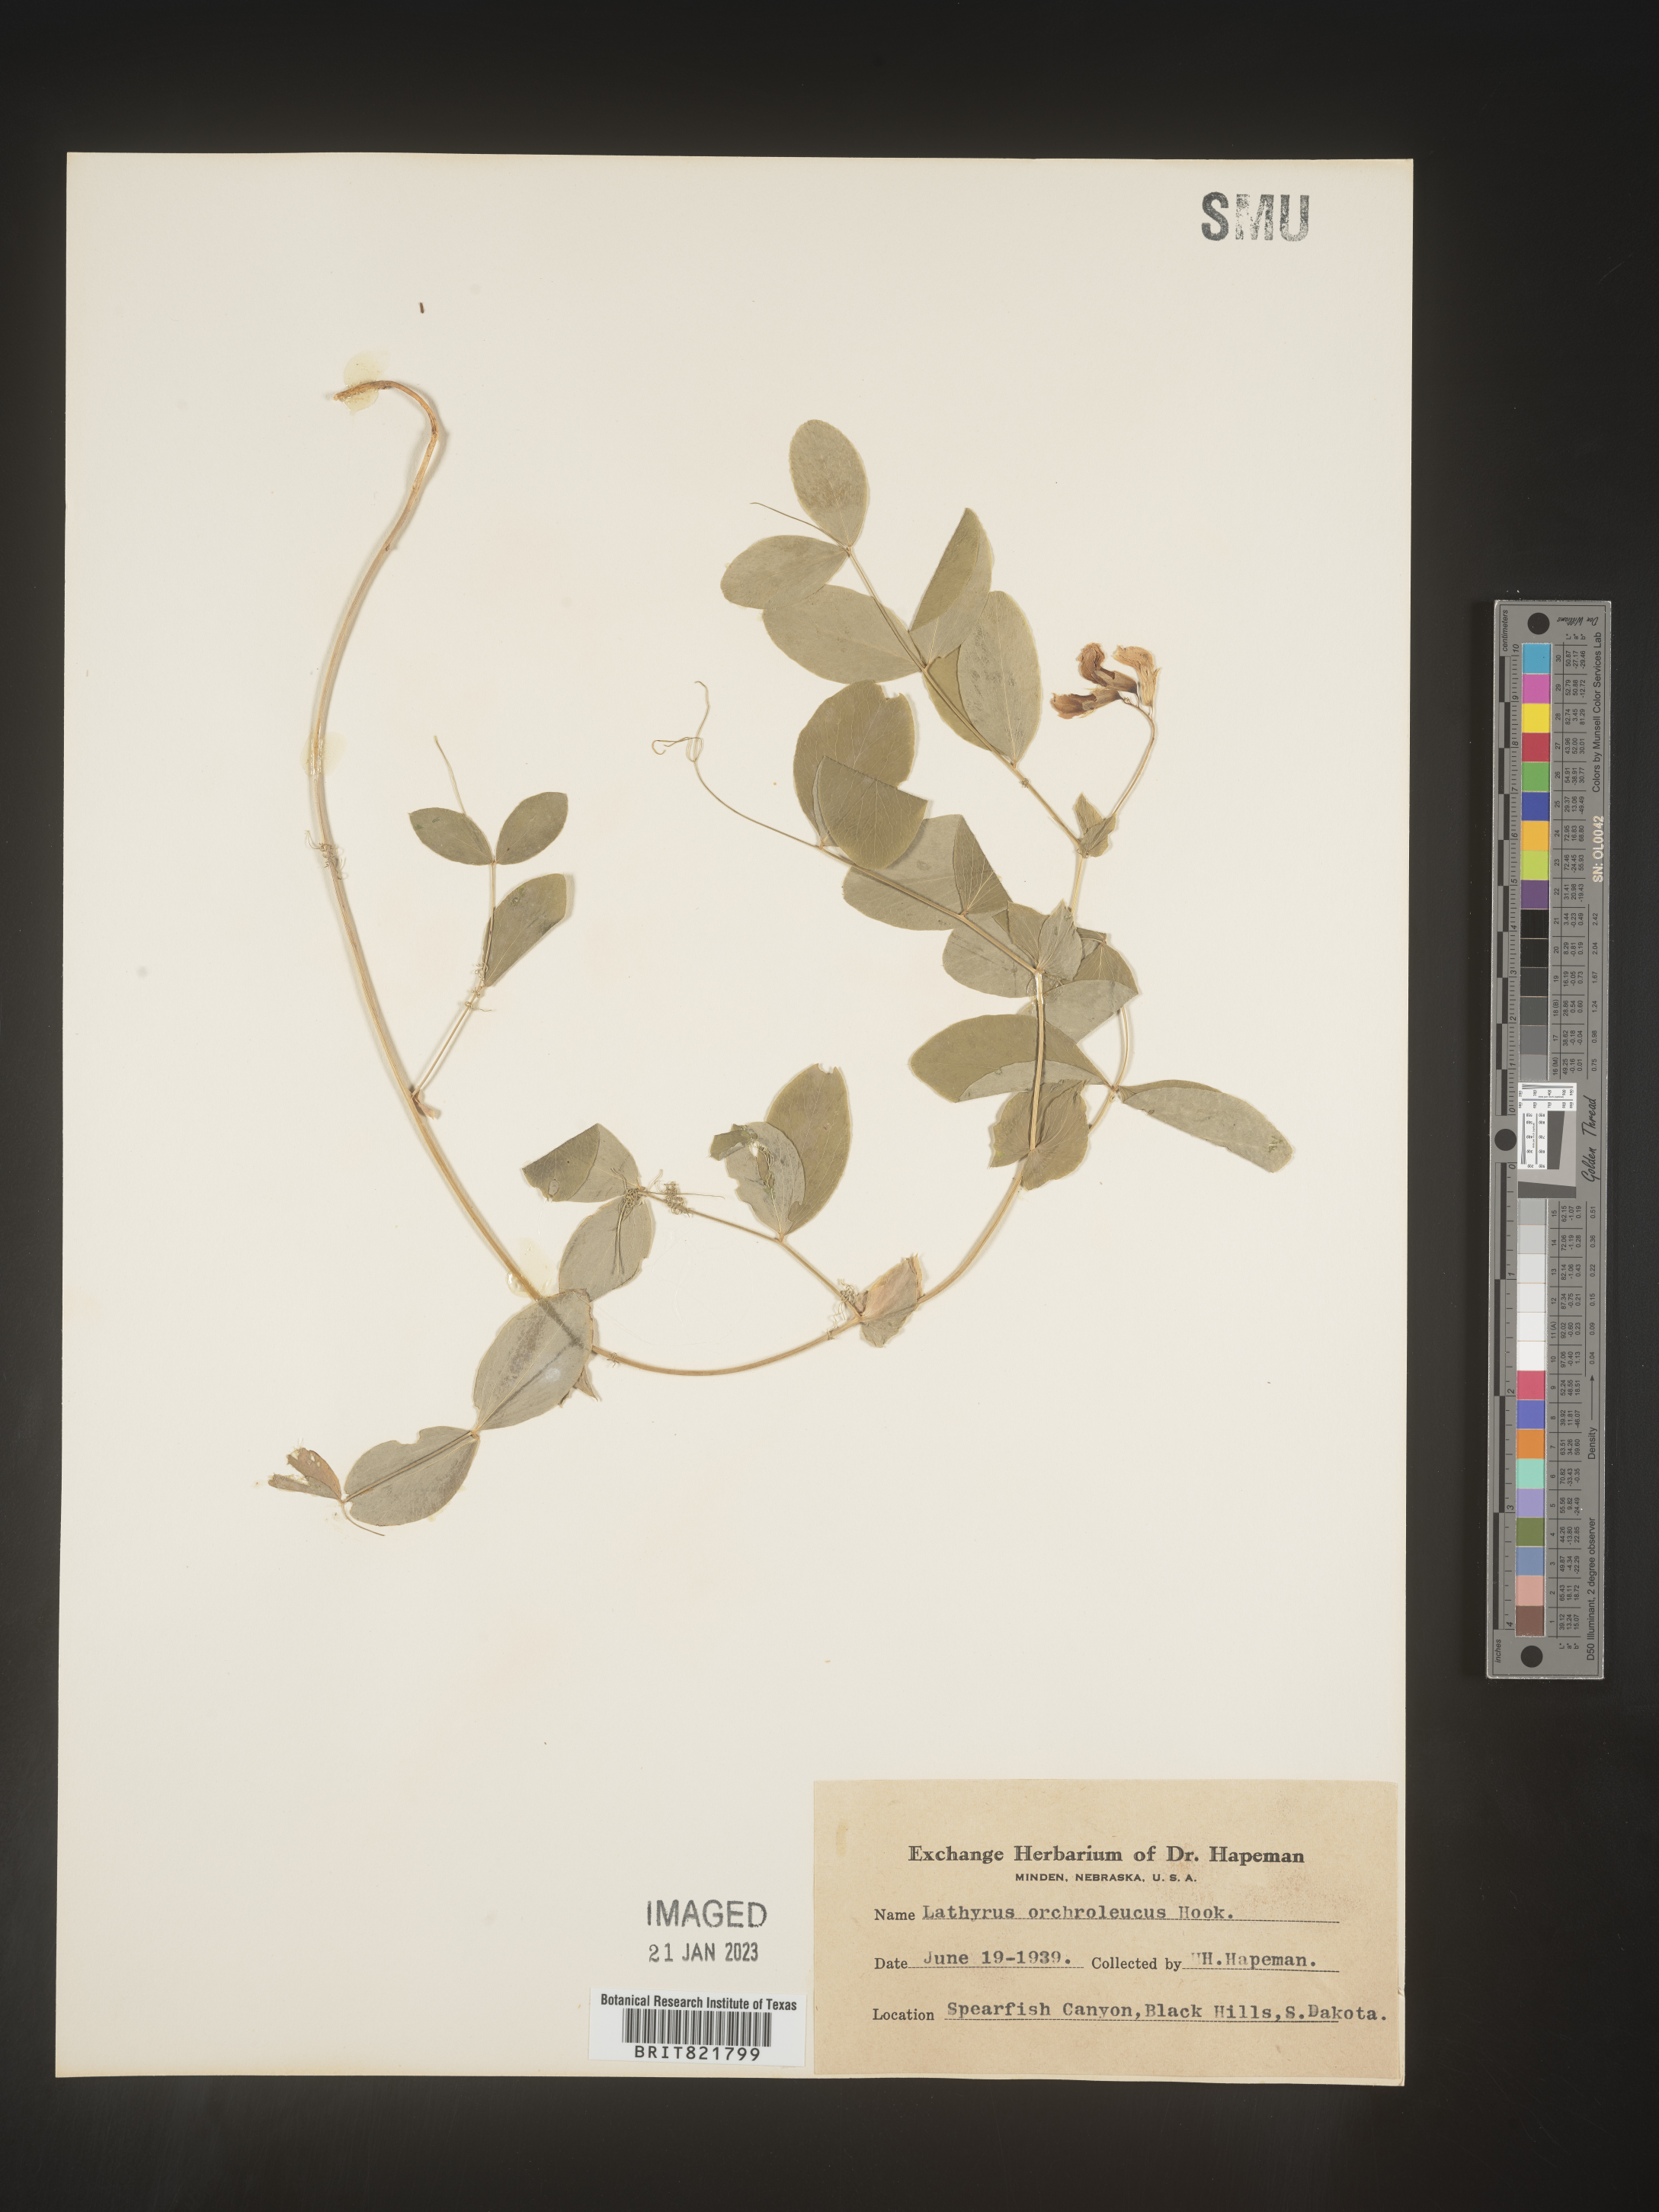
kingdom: Plantae
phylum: Tracheophyta
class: Magnoliopsida
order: Fabales
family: Fabaceae
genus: Lathyrus
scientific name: Lathyrus
